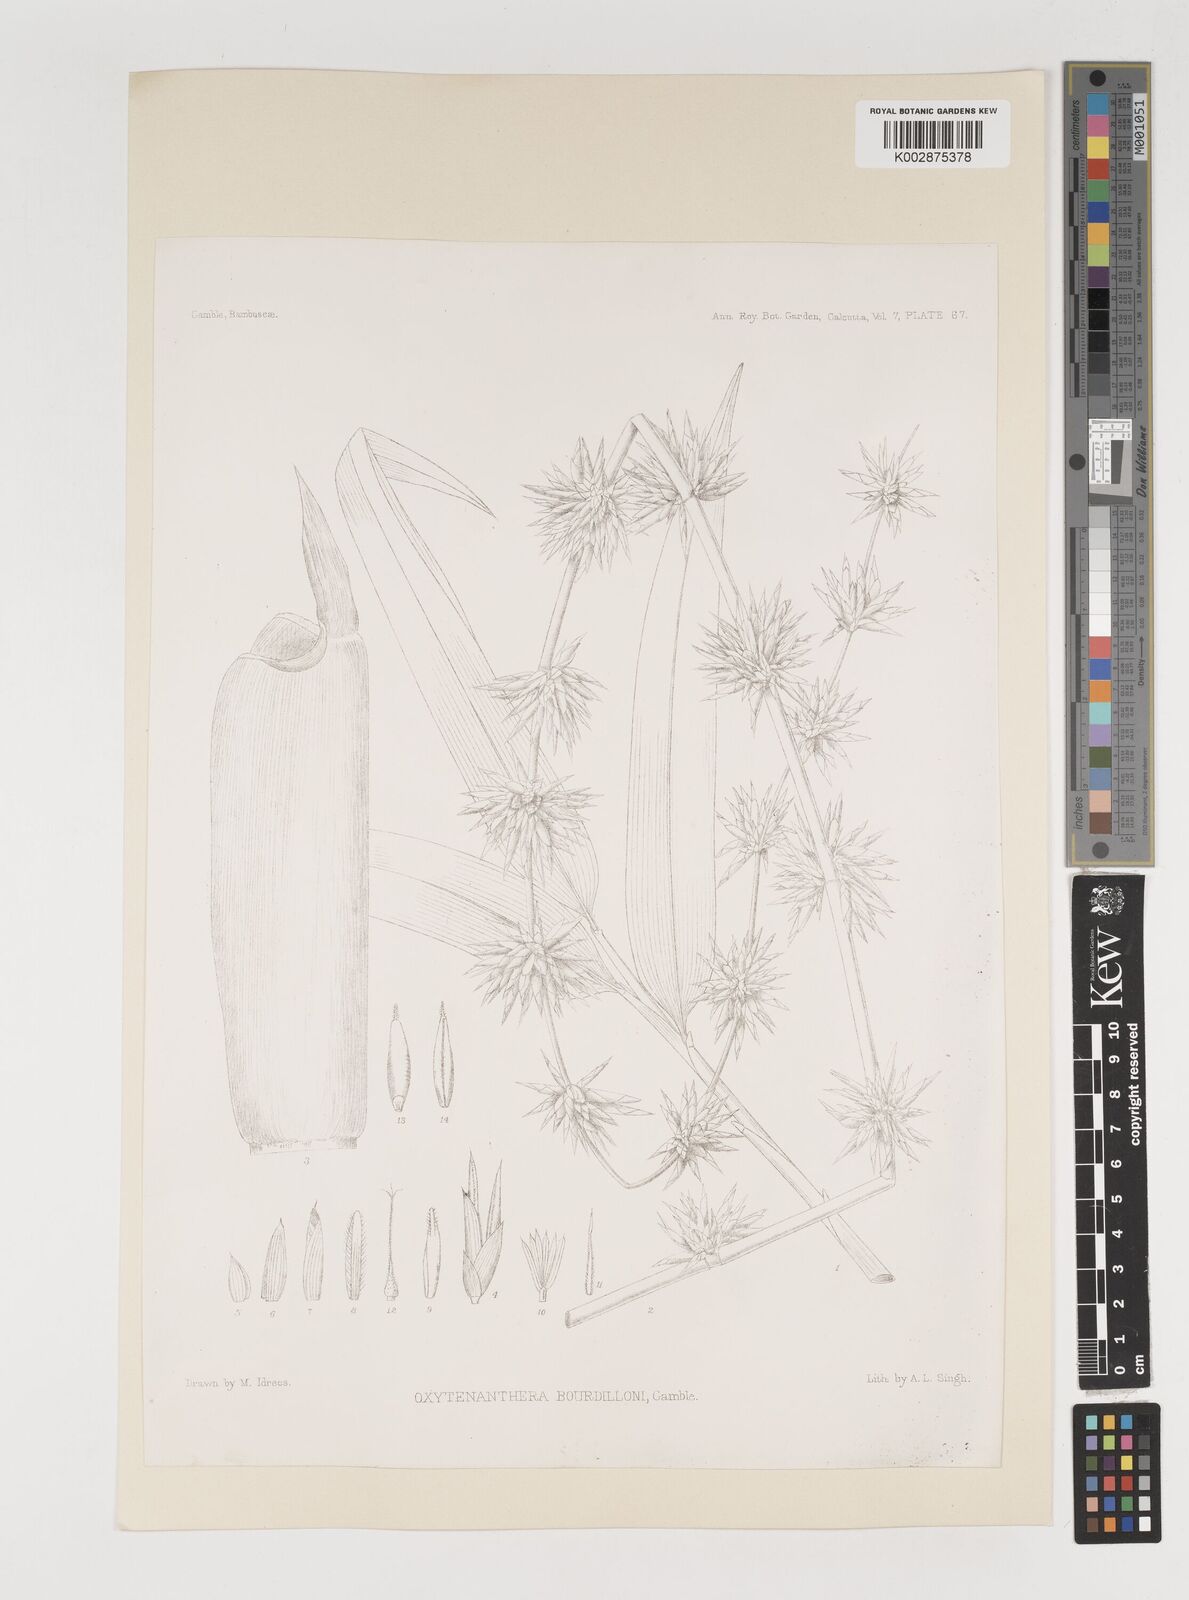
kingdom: Plantae
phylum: Tracheophyta
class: Liliopsida
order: Poales
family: Poaceae
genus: Dendrocalamus
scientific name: Dendrocalamus
